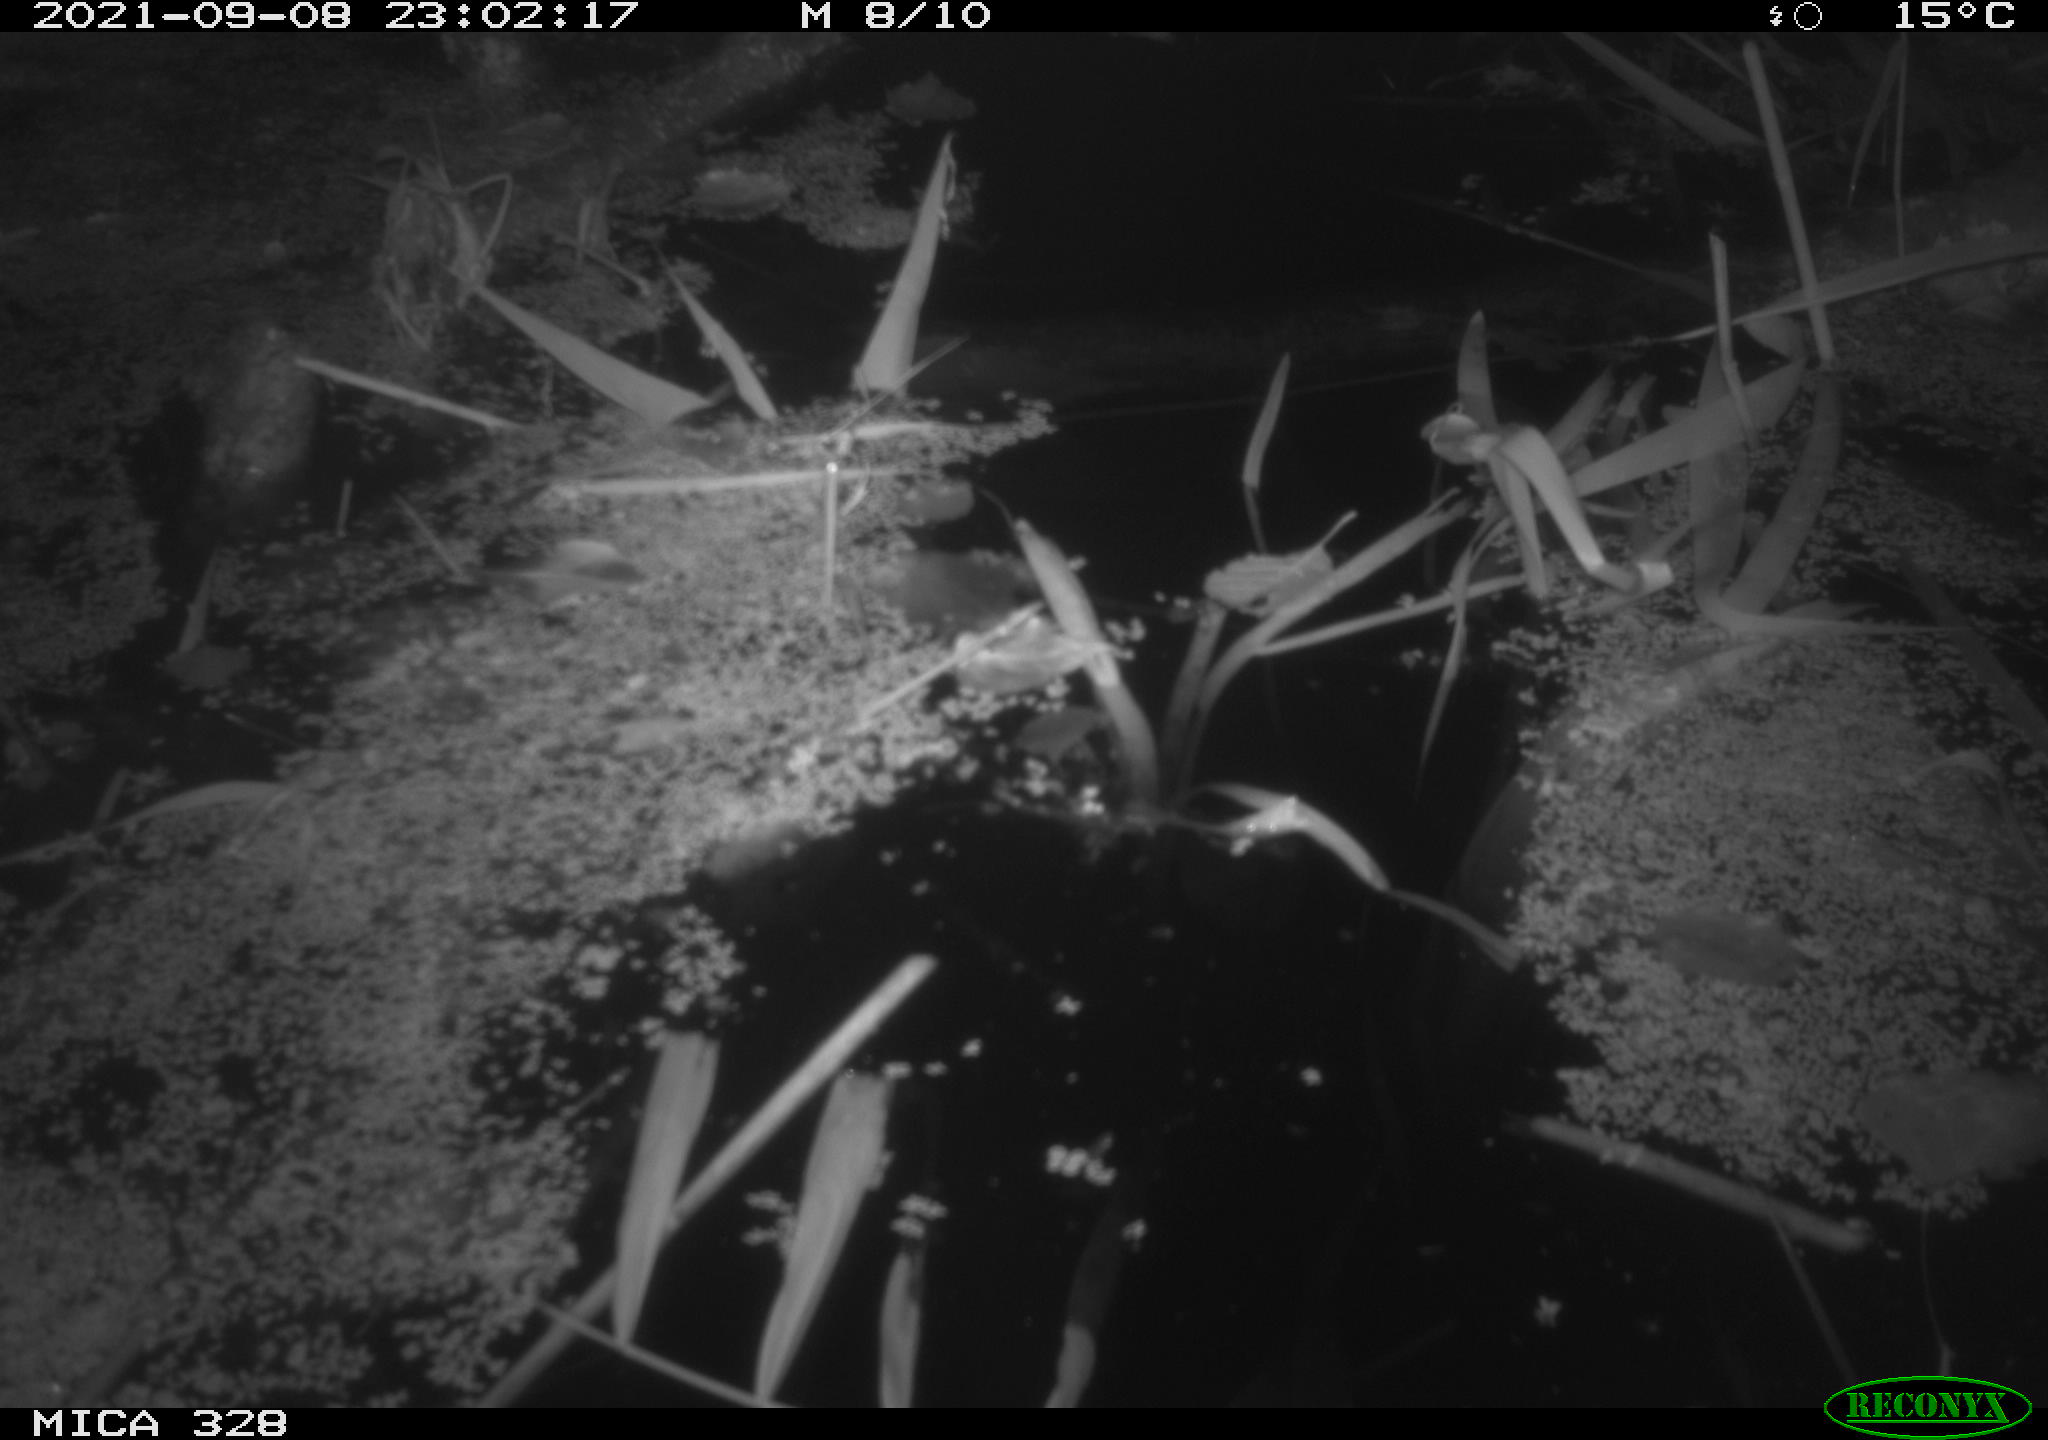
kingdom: Animalia
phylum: Chordata
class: Mammalia
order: Rodentia
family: Cricetidae
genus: Ondatra
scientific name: Ondatra zibethicus
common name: Muskrat
